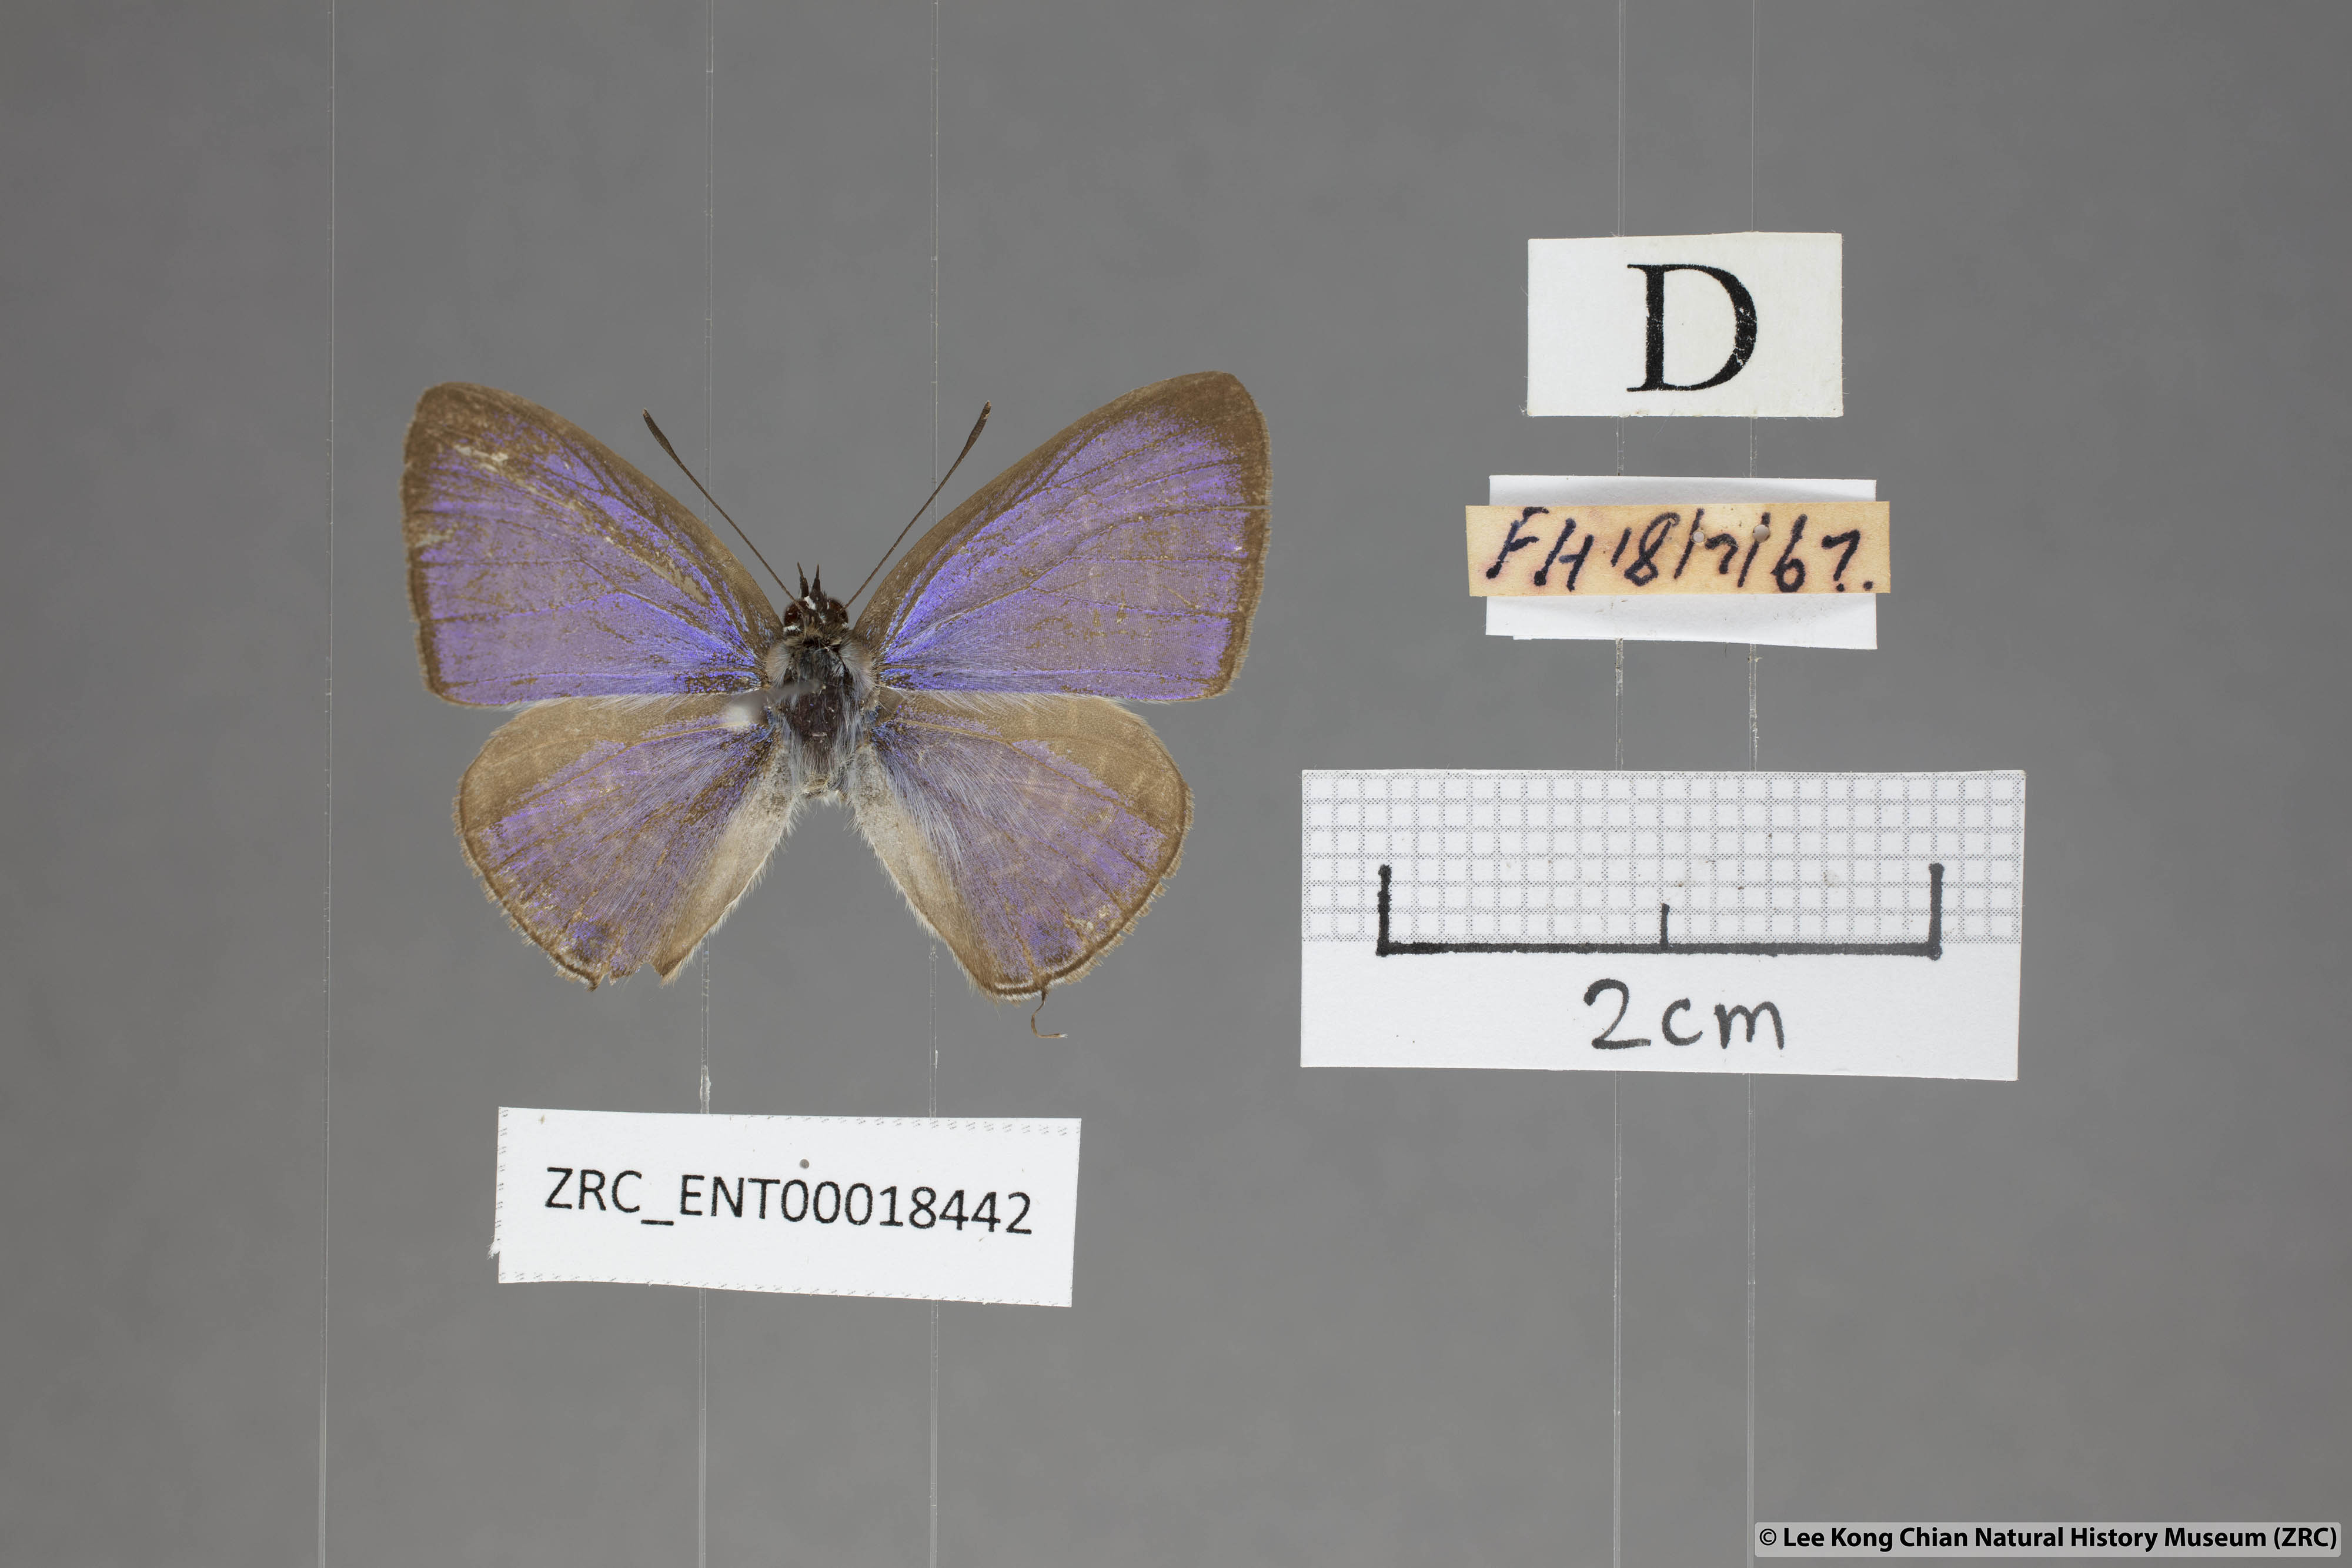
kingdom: Animalia
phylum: Arthropoda
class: Insecta
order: Lepidoptera
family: Lycaenidae
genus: Nacaduba
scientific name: Nacaduba pendleburyi
